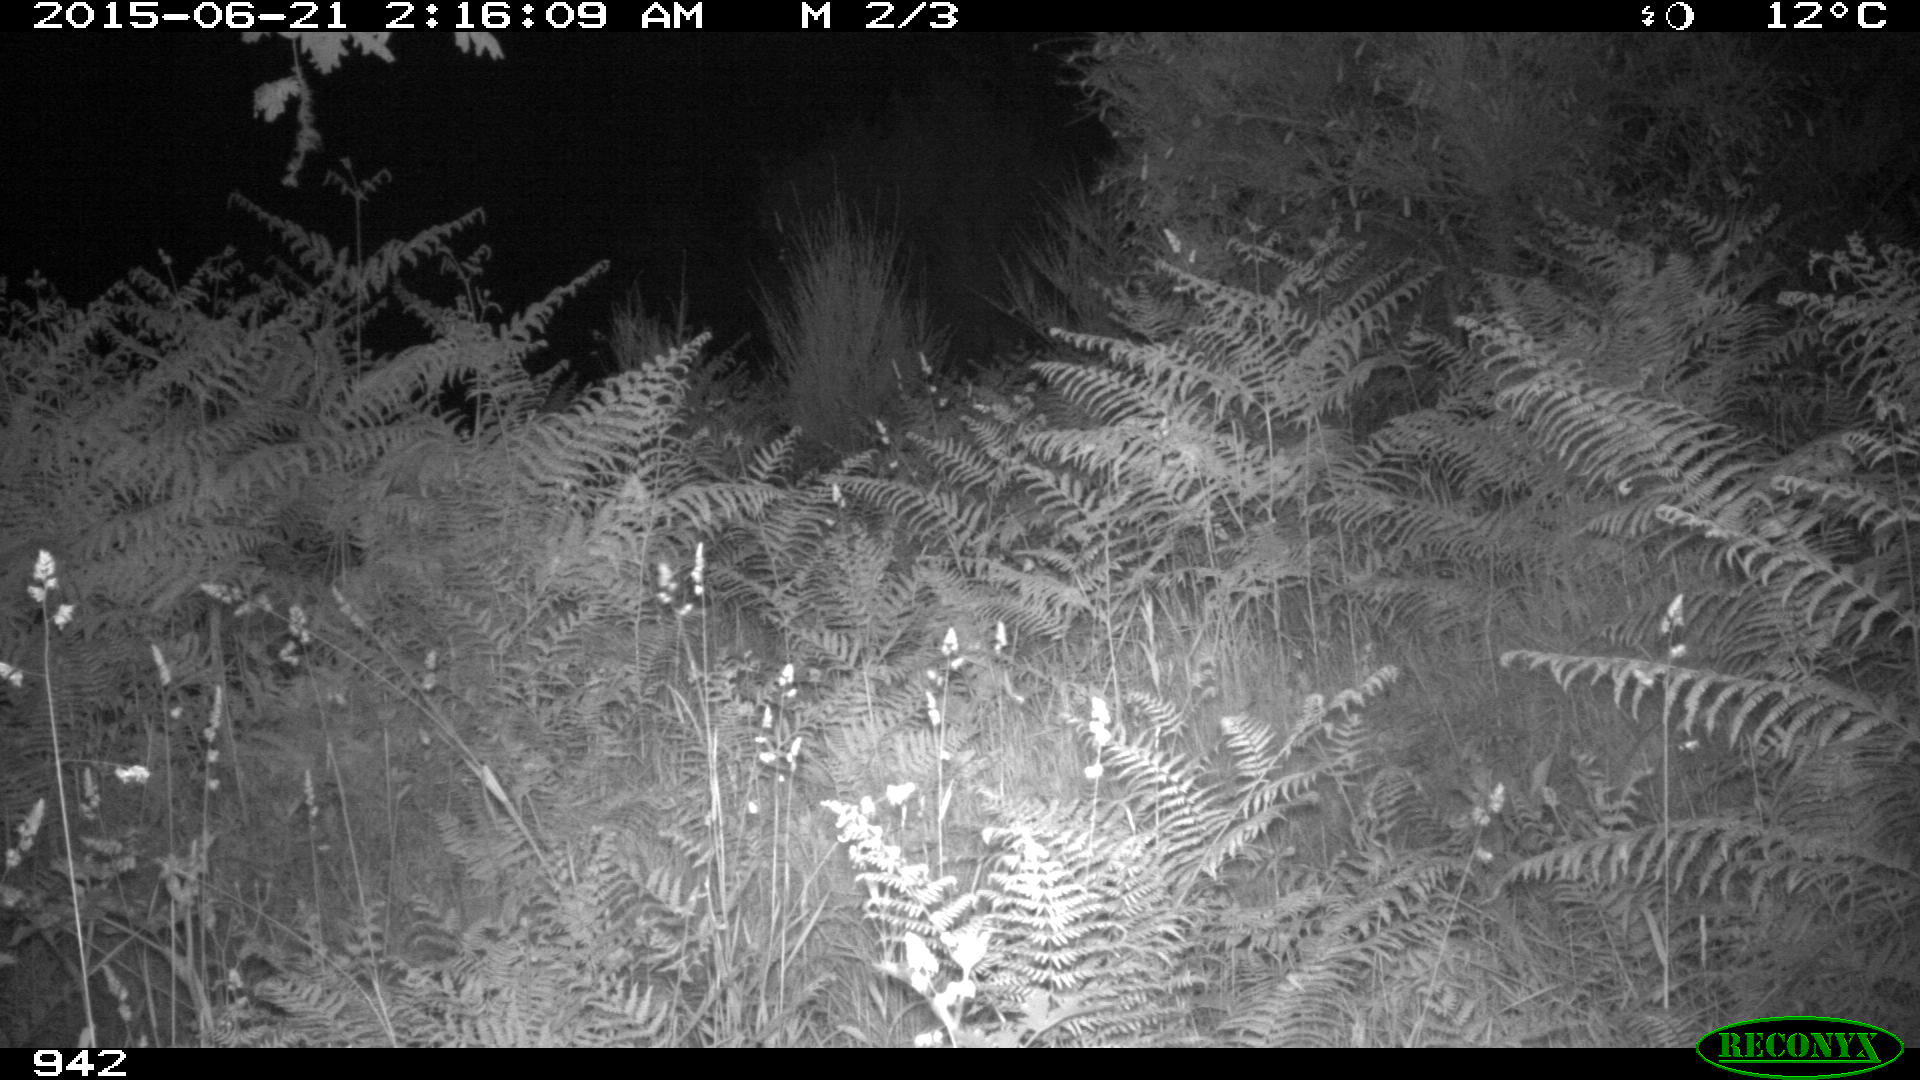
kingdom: Animalia
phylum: Chordata
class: Mammalia
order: Artiodactyla
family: Suidae
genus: Sus
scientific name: Sus scrofa
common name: Wild boar
